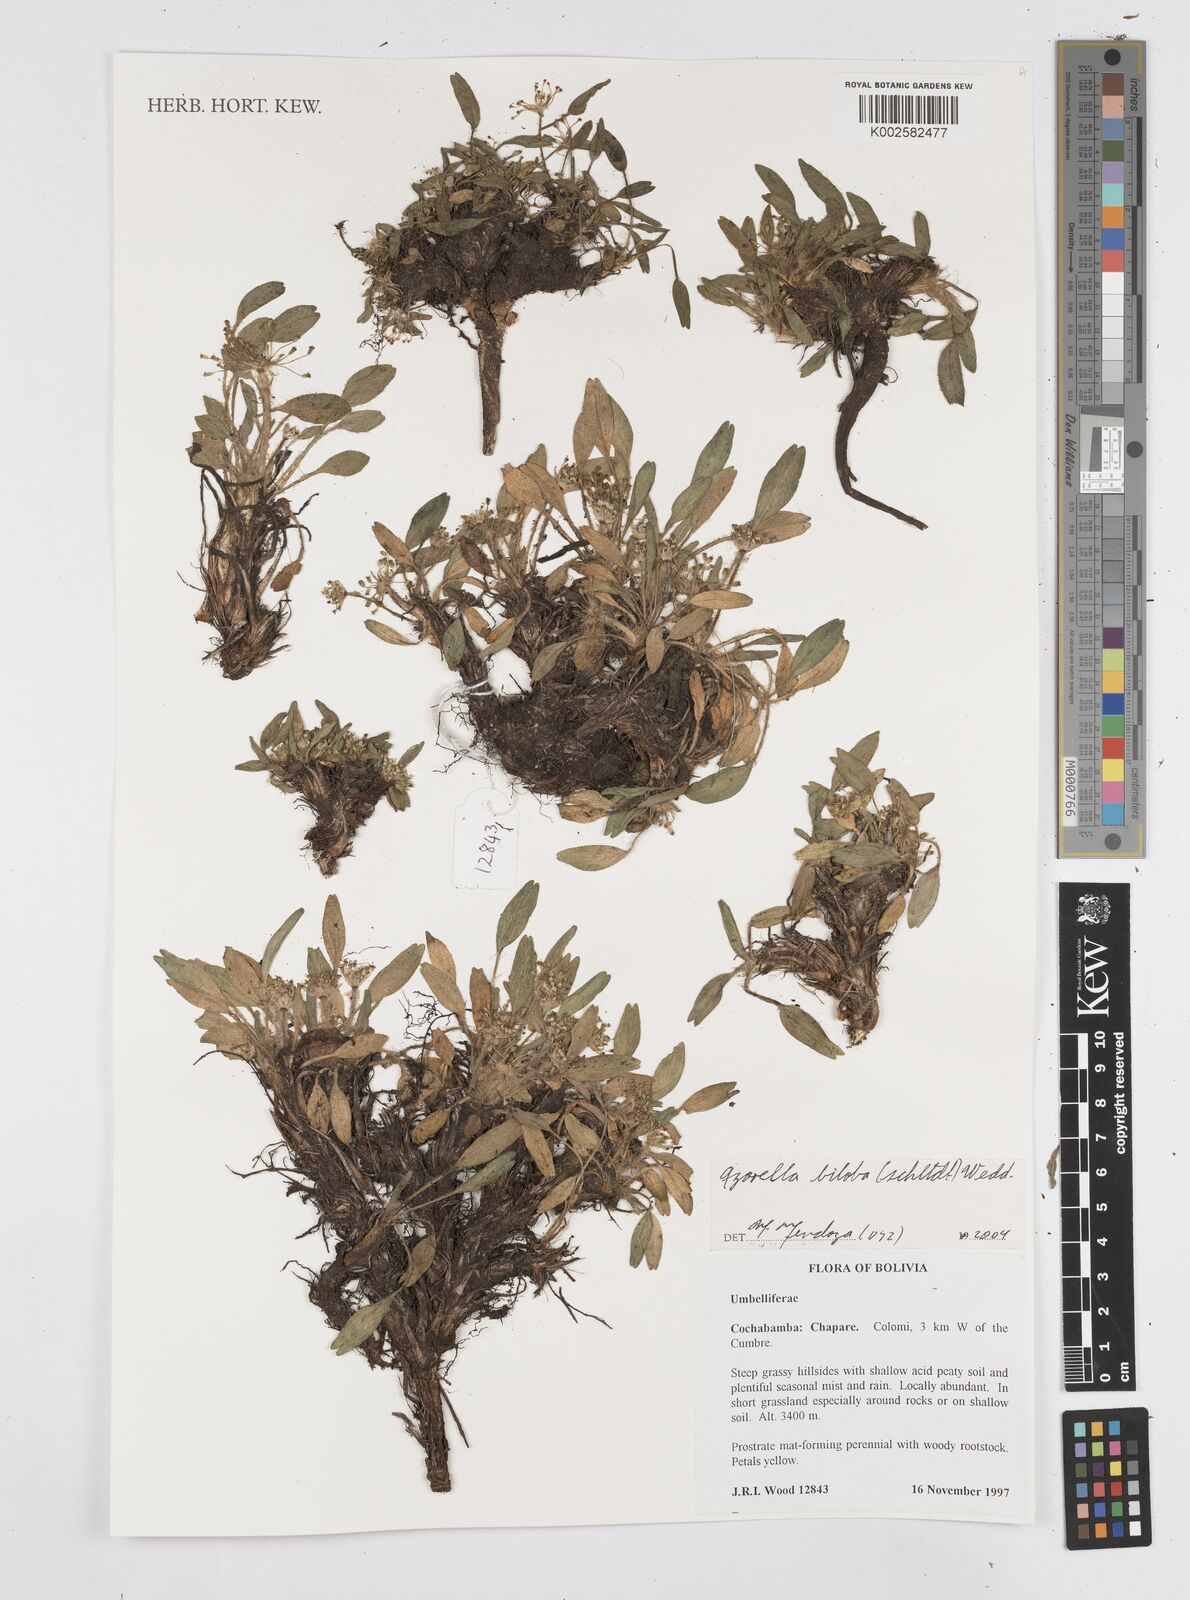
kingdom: Plantae
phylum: Tracheophyta
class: Magnoliopsida
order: Apiales
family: Apiaceae
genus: Azorella
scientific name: Azorella biloba
